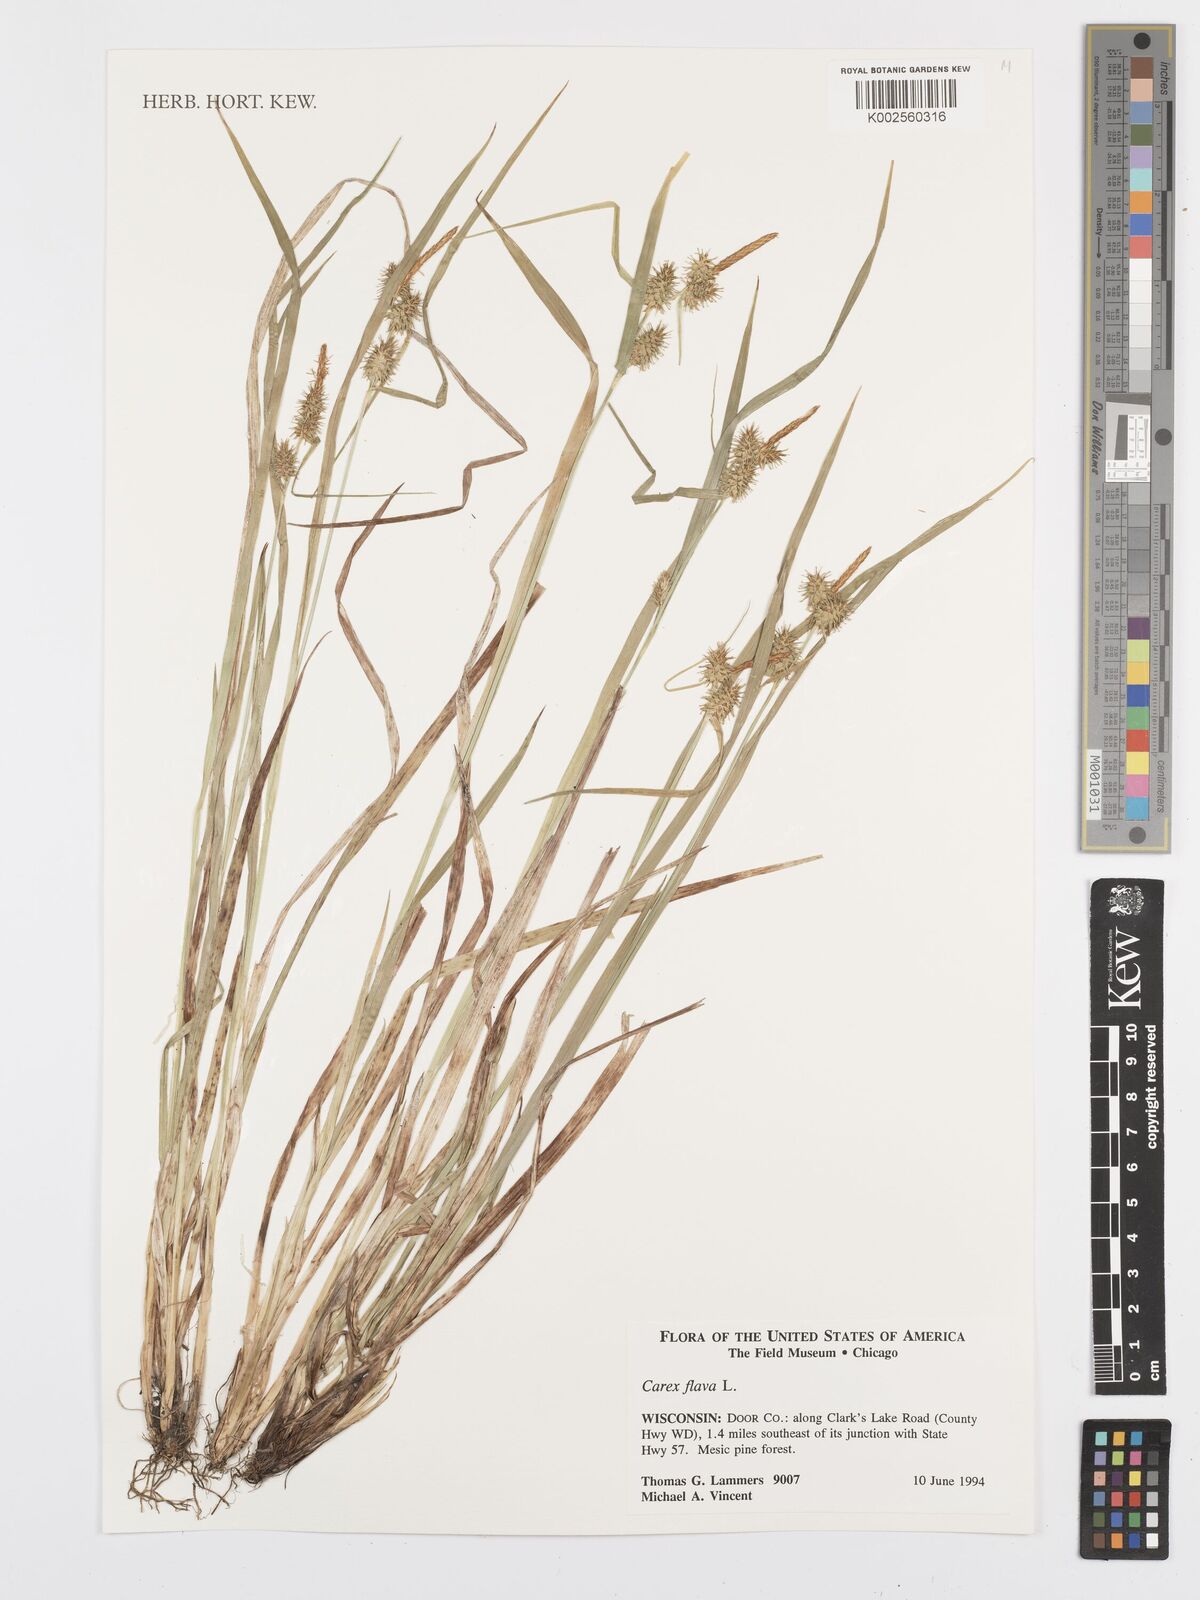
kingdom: Plantae
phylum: Tracheophyta
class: Liliopsida
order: Poales
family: Cyperaceae
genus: Carex
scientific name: Carex flava
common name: Large yellow-sedge
